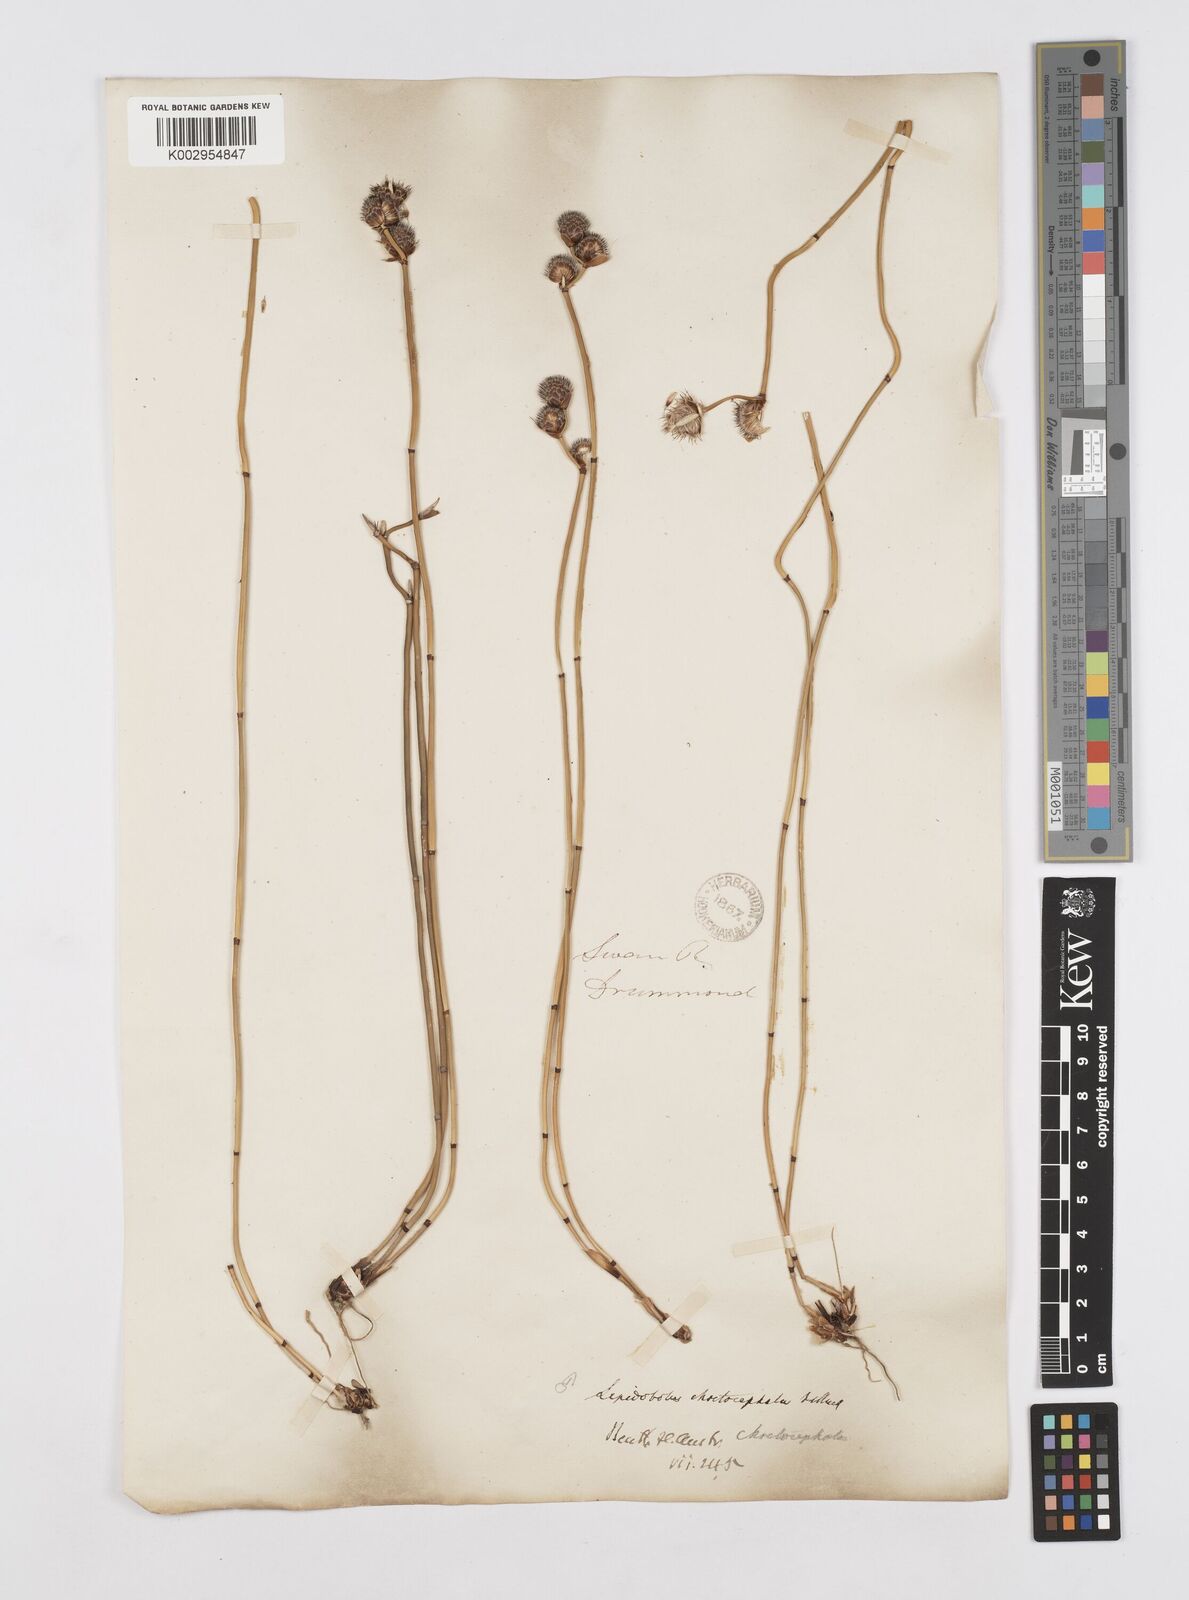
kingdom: Plantae
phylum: Tracheophyta
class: Liliopsida
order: Poales
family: Restionaceae
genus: Lepidobolus
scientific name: Lepidobolus chaetocephalus
